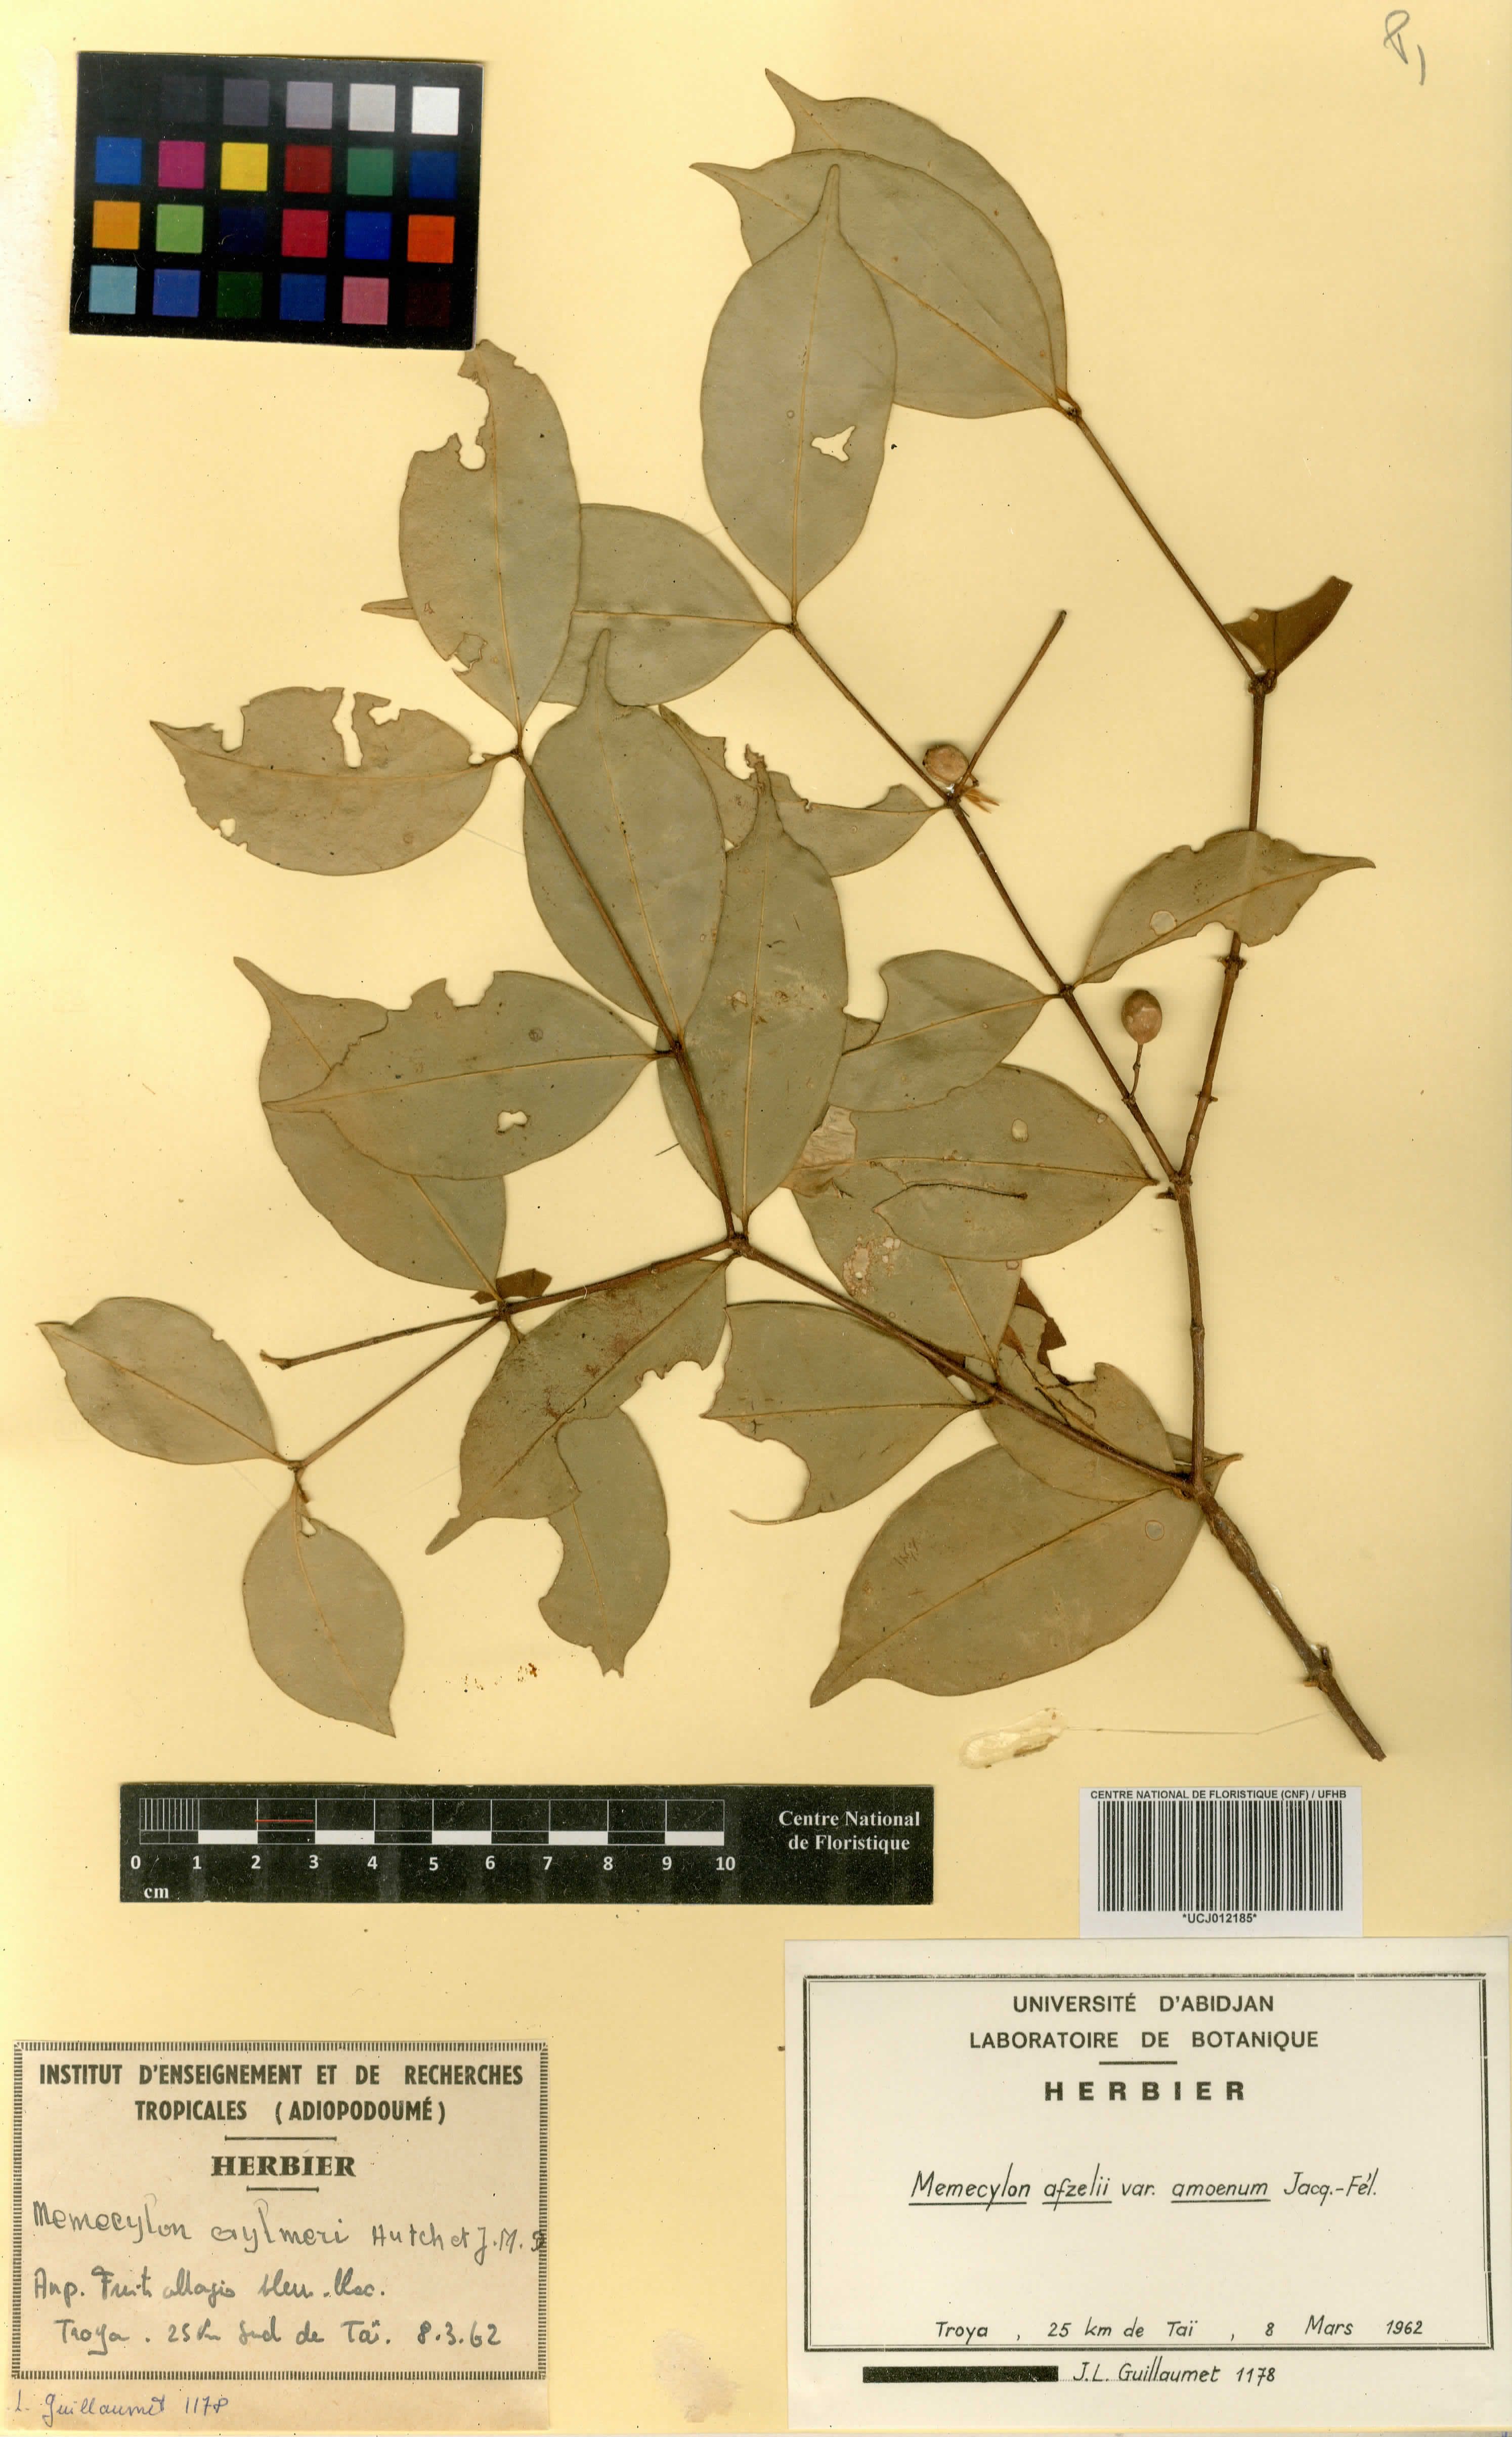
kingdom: Plantae
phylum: Tracheophyta
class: Magnoliopsida
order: Myrtales
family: Melastomataceae
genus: Memecylon
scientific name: Memecylon accedens
